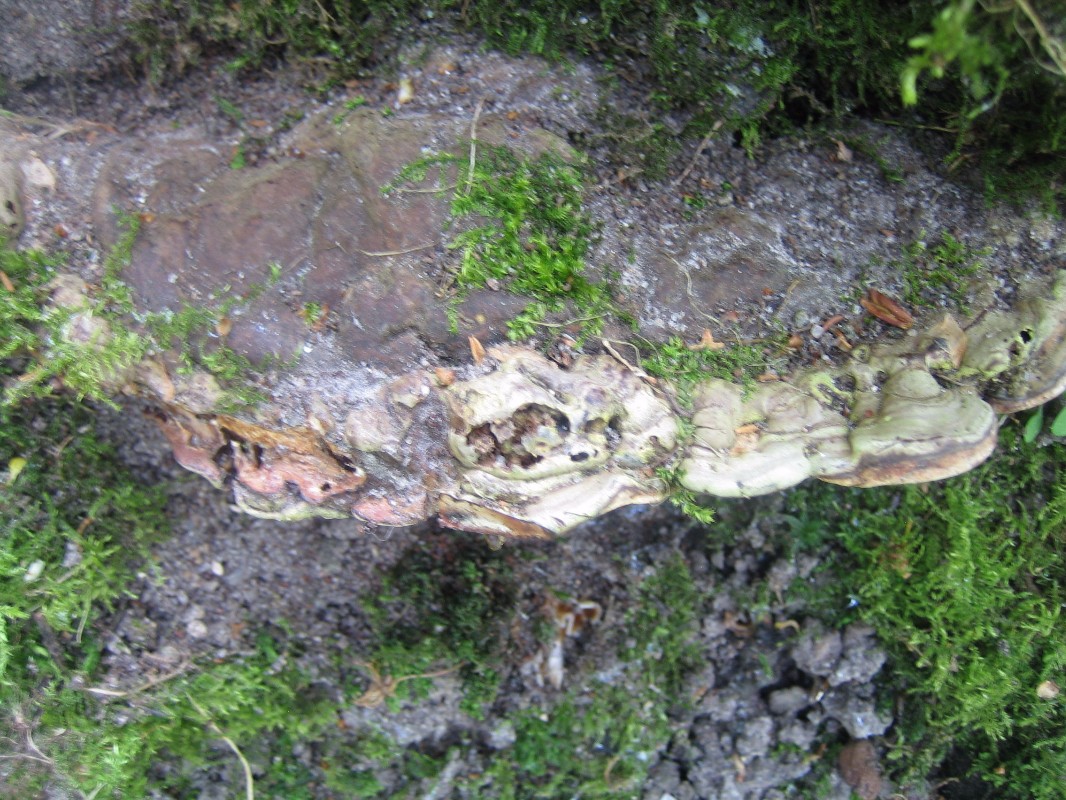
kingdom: Fungi
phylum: Basidiomycota
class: Agaricomycetes
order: Polyporales
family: Polyporaceae
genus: Ganoderma
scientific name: Ganoderma applanatum
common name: flad lakporesvamp
